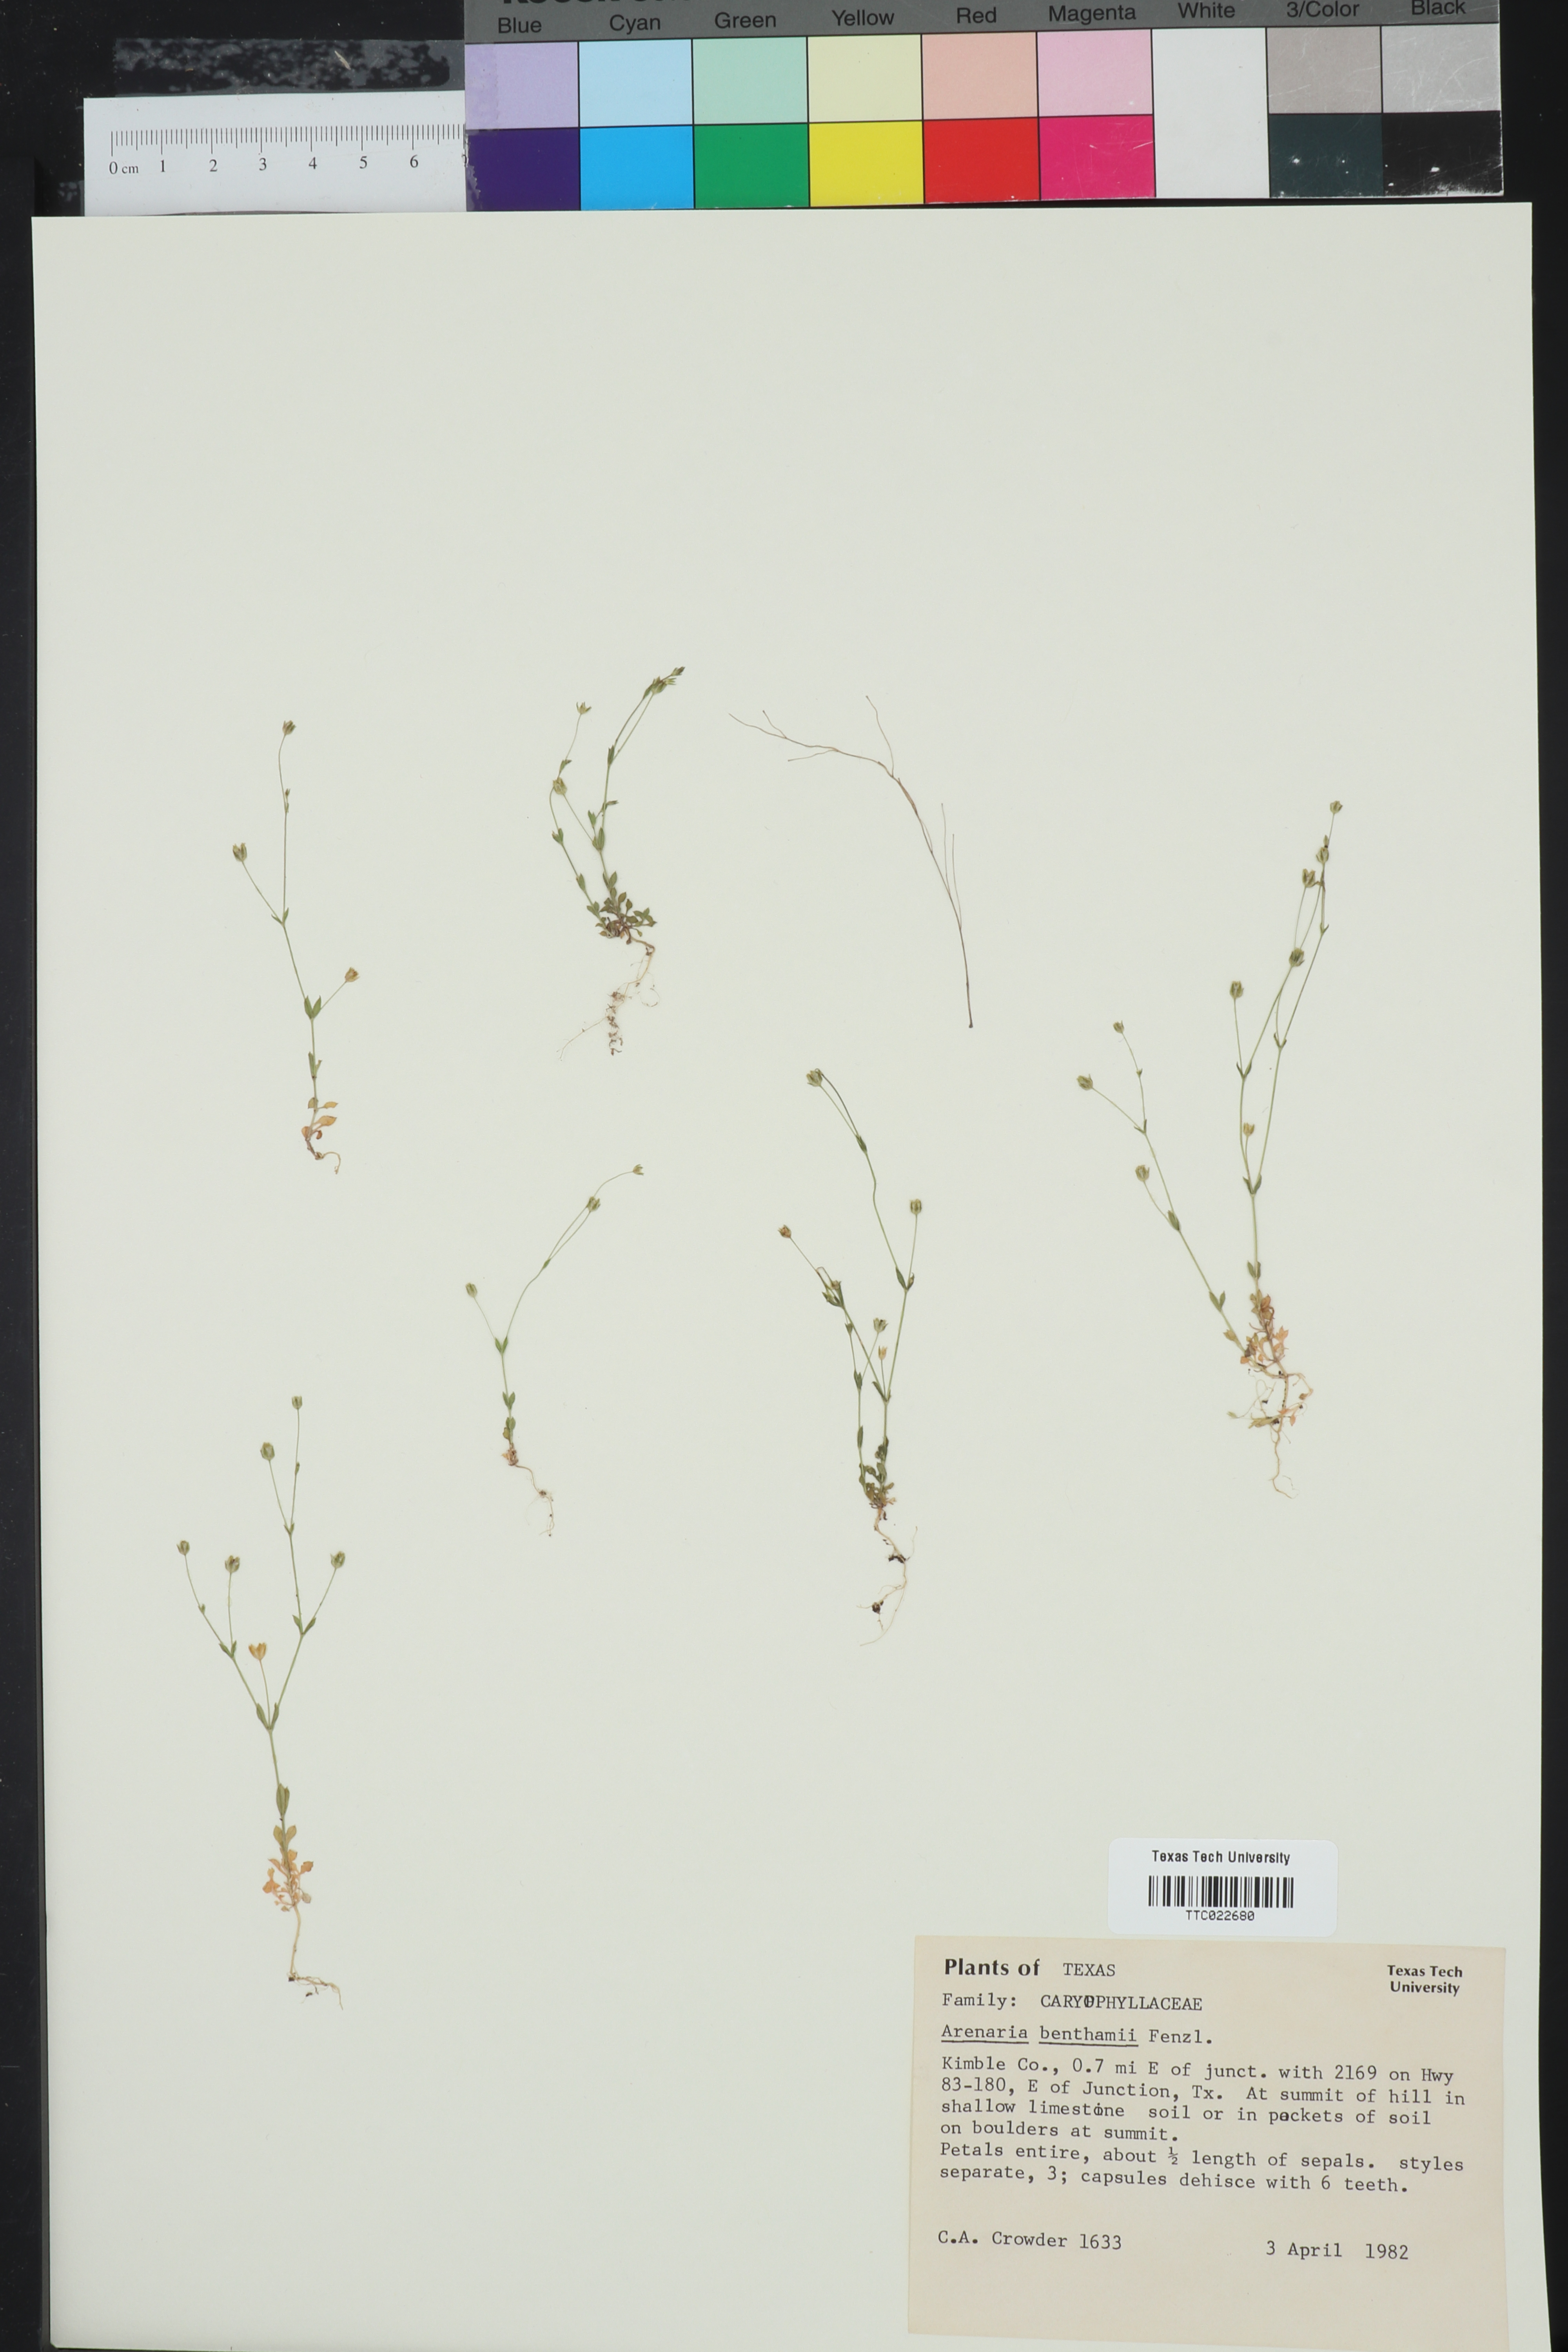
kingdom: Plantae
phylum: Tracheophyta
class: Magnoliopsida
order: Caryophyllales
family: Caryophyllaceae
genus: Arenaria
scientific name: Arenaria benthamii
